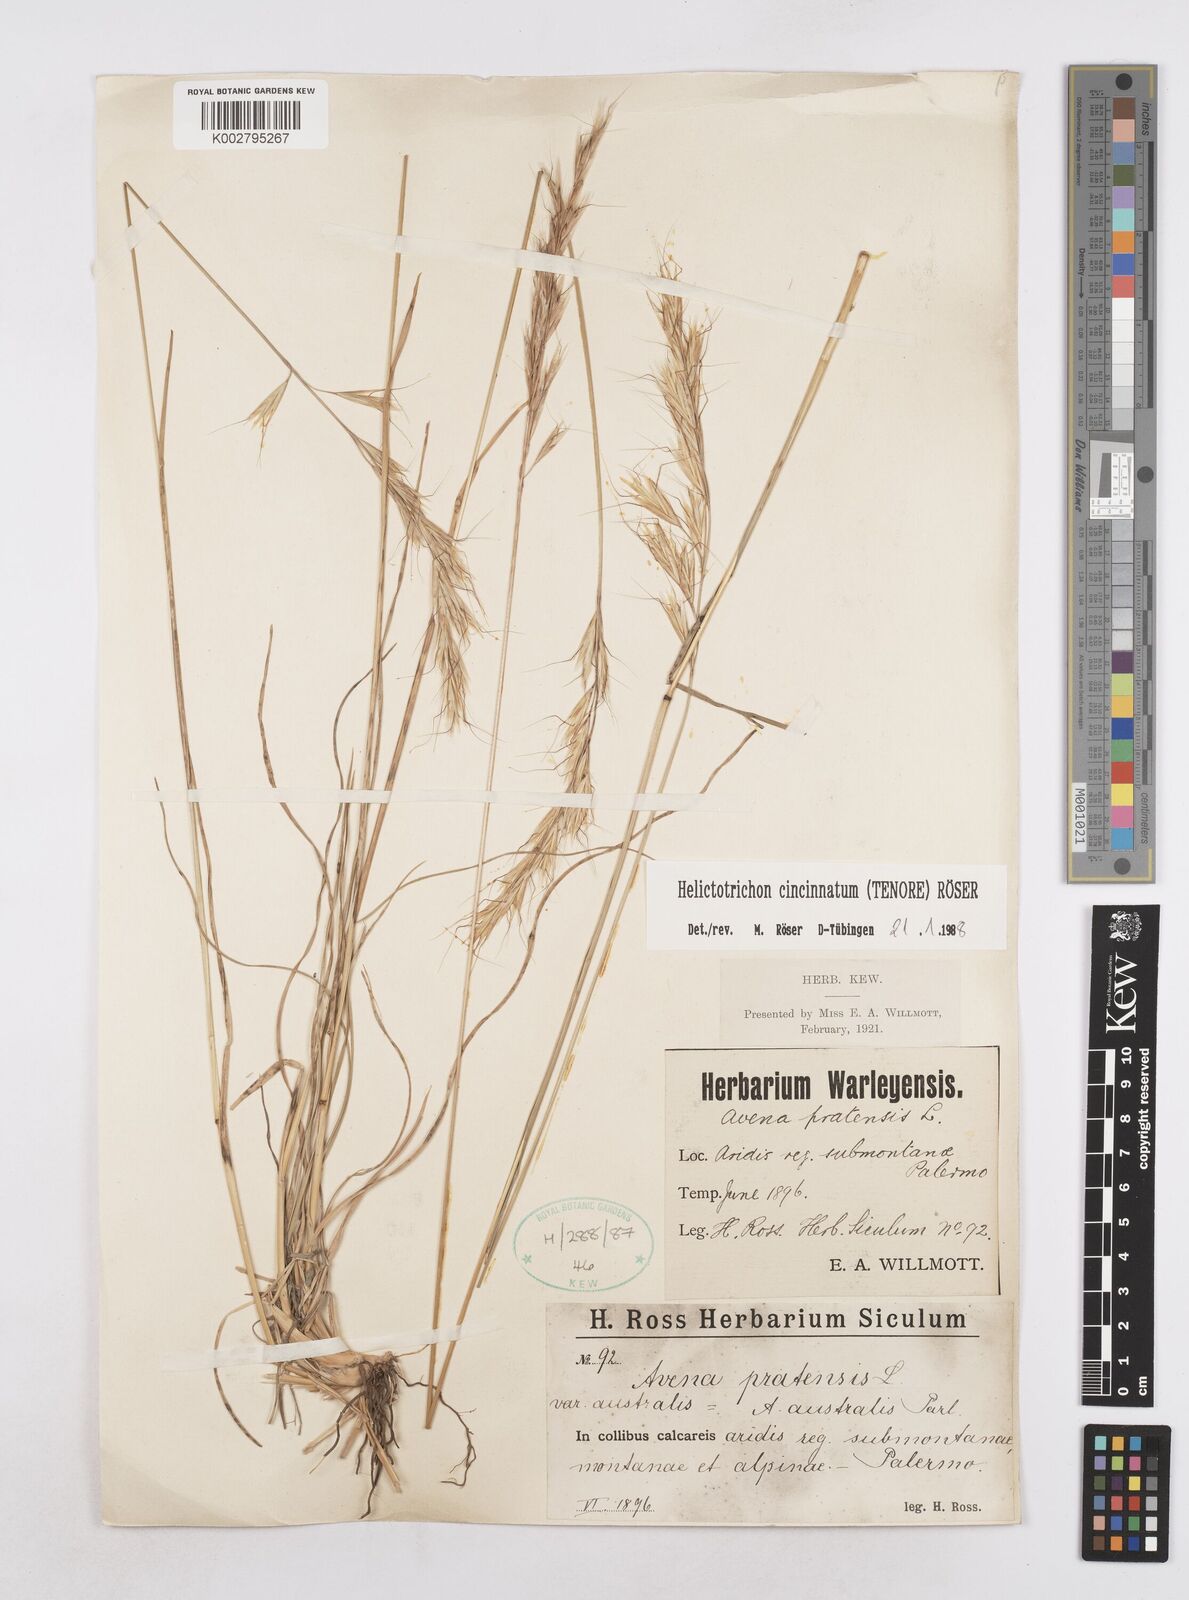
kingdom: Plantae
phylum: Tracheophyta
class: Liliopsida
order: Poales
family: Poaceae
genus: Helictochloa
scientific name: Helictochloa cincinnata
